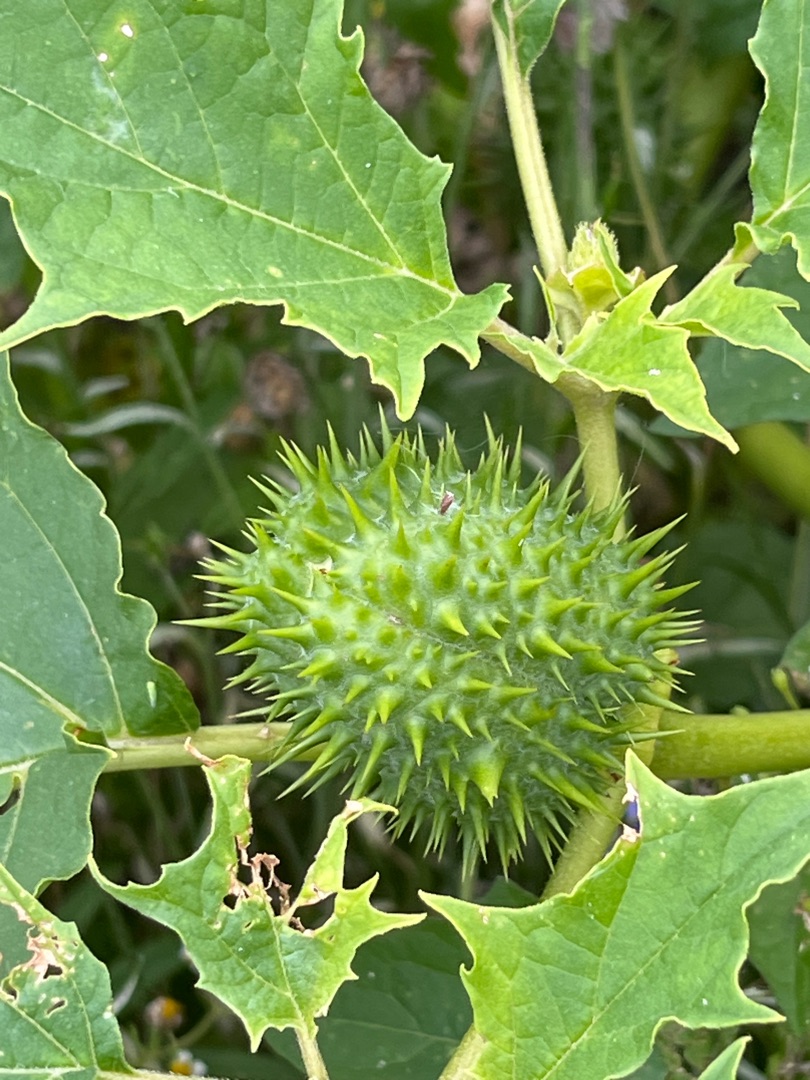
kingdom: Plantae
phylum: Tracheophyta
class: Magnoliopsida
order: Solanales
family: Solanaceae
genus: Datura
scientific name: Datura stramonium
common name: Pigæble
